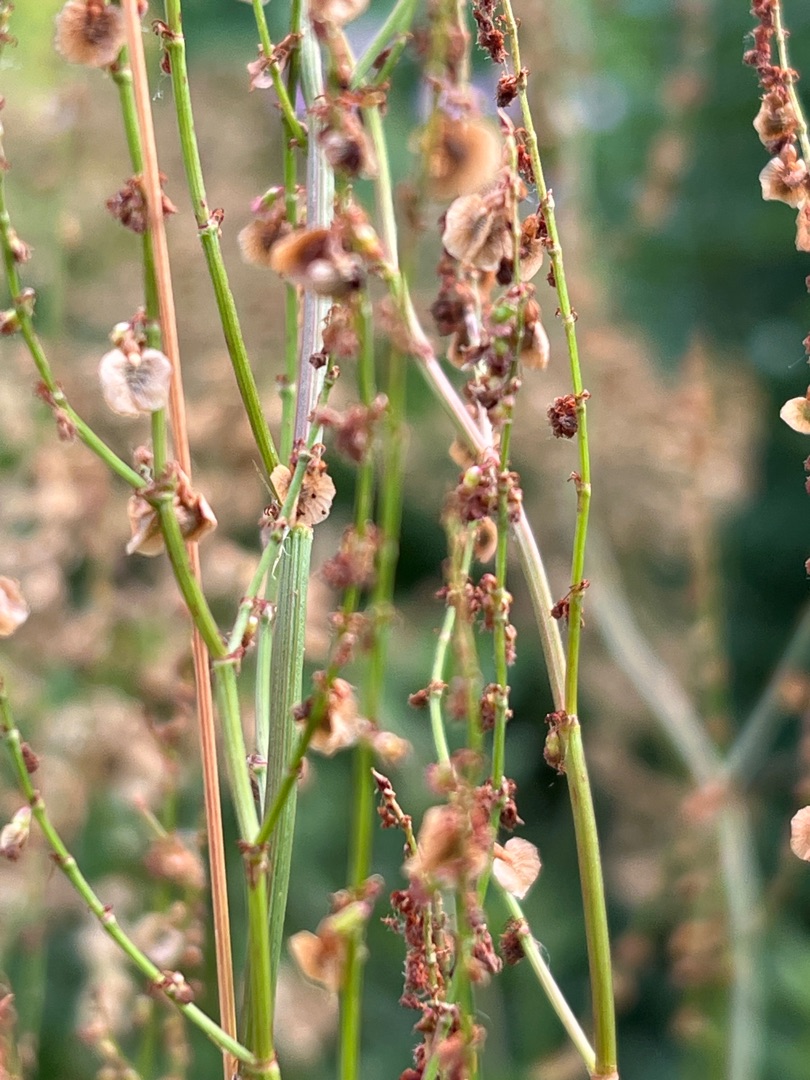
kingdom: Plantae
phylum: Tracheophyta
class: Magnoliopsida
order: Caryophyllales
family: Polygonaceae
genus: Rumex
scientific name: Rumex acetosa
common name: Almindelig syre
